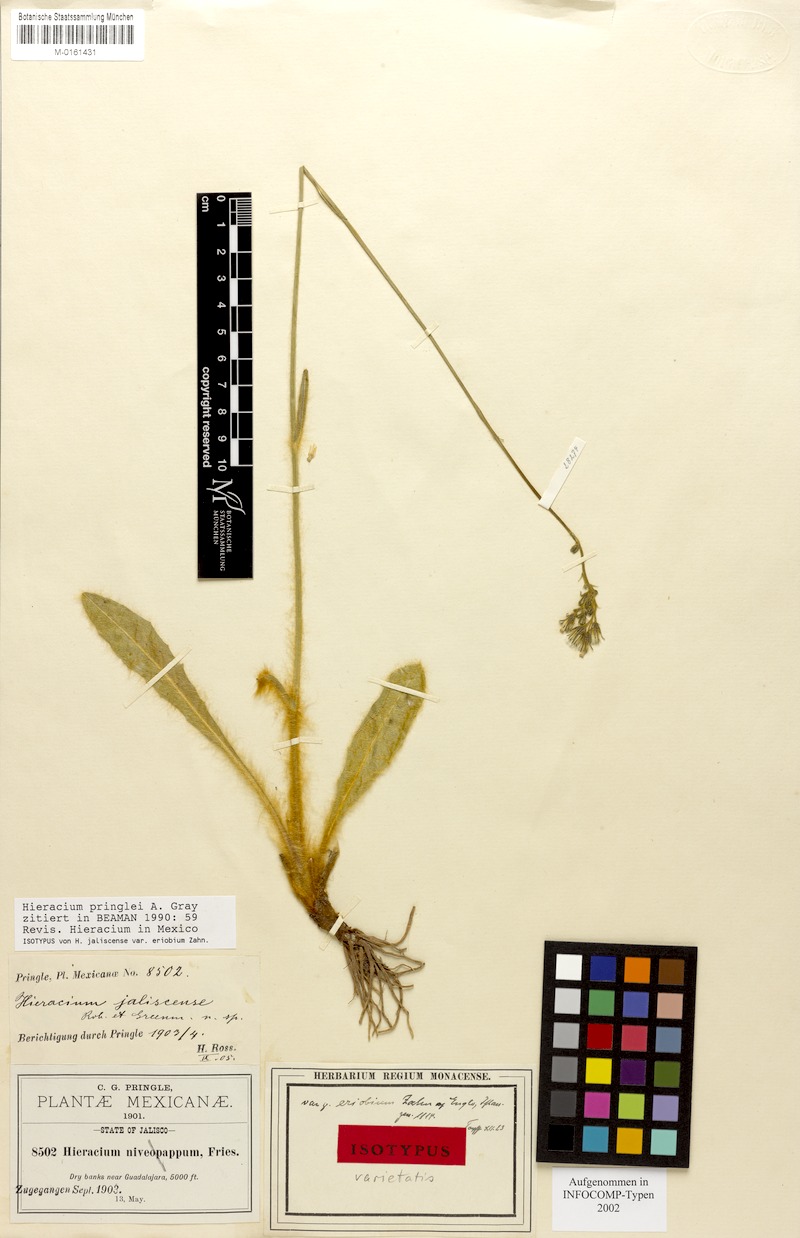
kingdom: Plantae
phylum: Tracheophyta
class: Magnoliopsida
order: Asterales
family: Asteraceae
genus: Hieracium
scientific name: Hieracium pringlei
